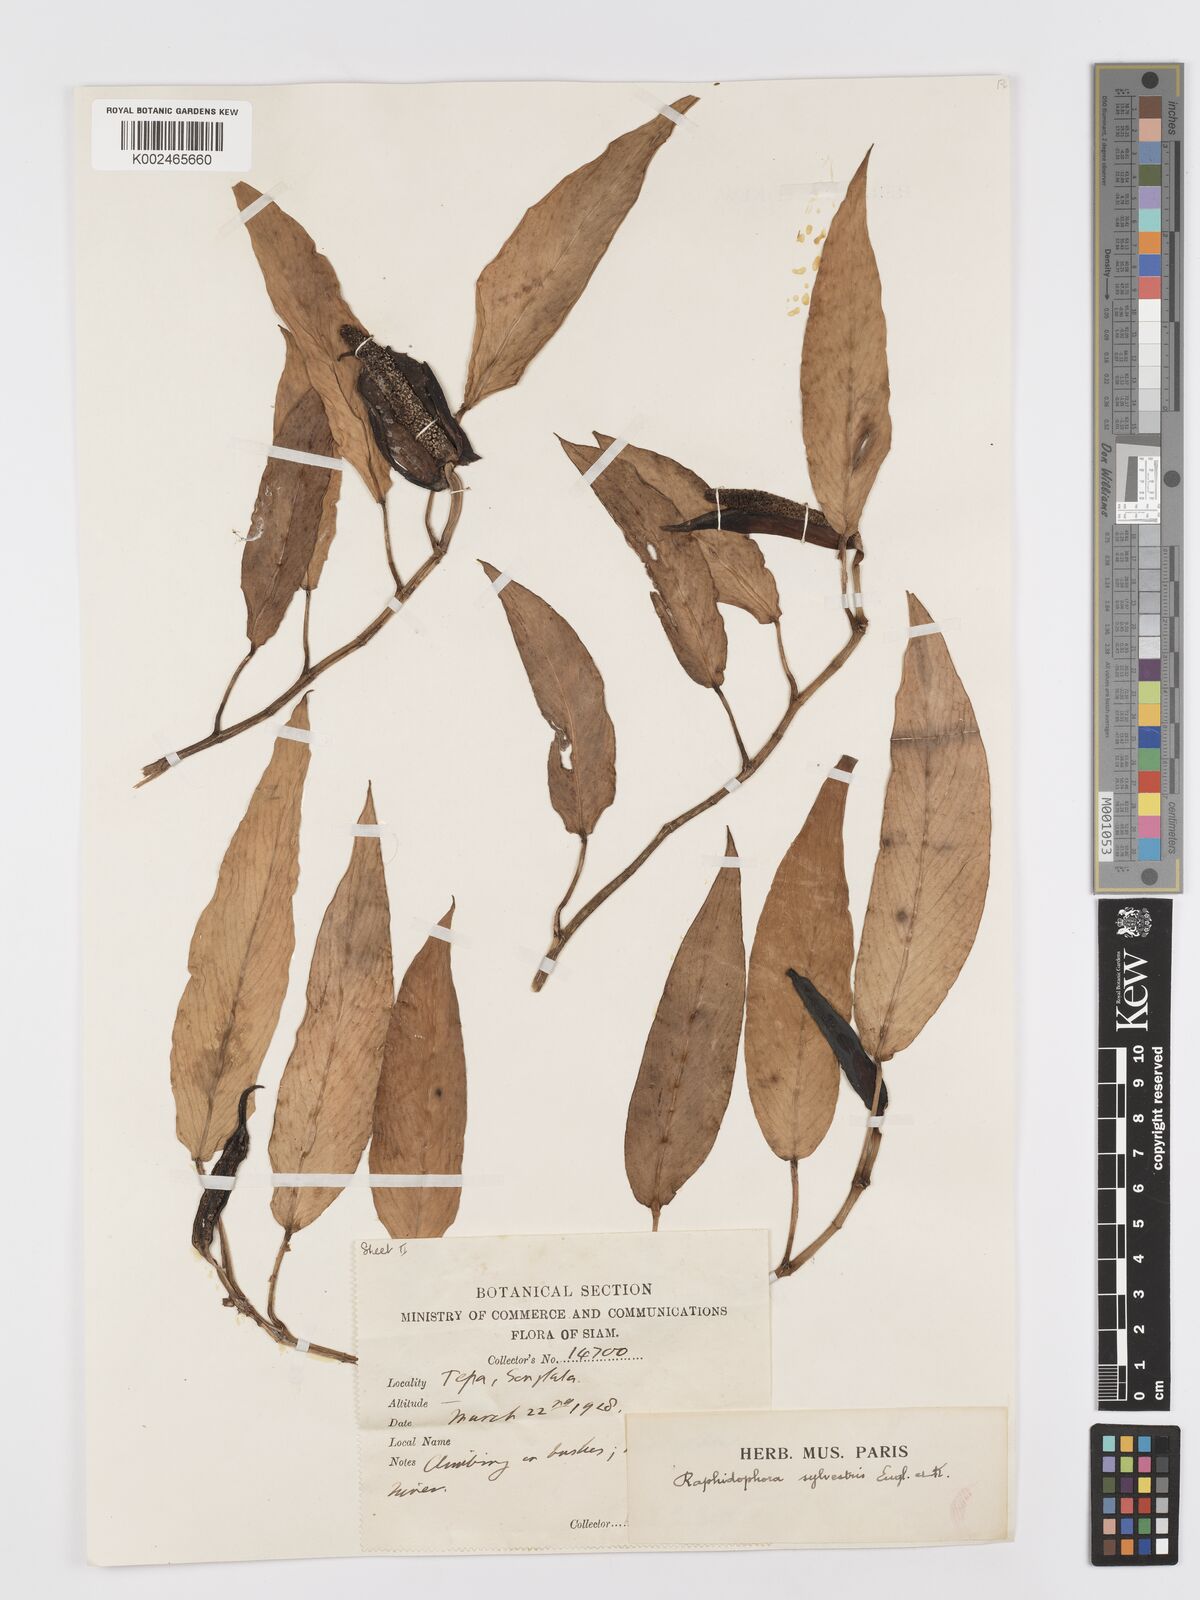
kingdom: Plantae
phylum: Tracheophyta
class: Liliopsida
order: Alismatales
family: Araceae
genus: Rhaphidophora
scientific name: Rhaphidophora minor
